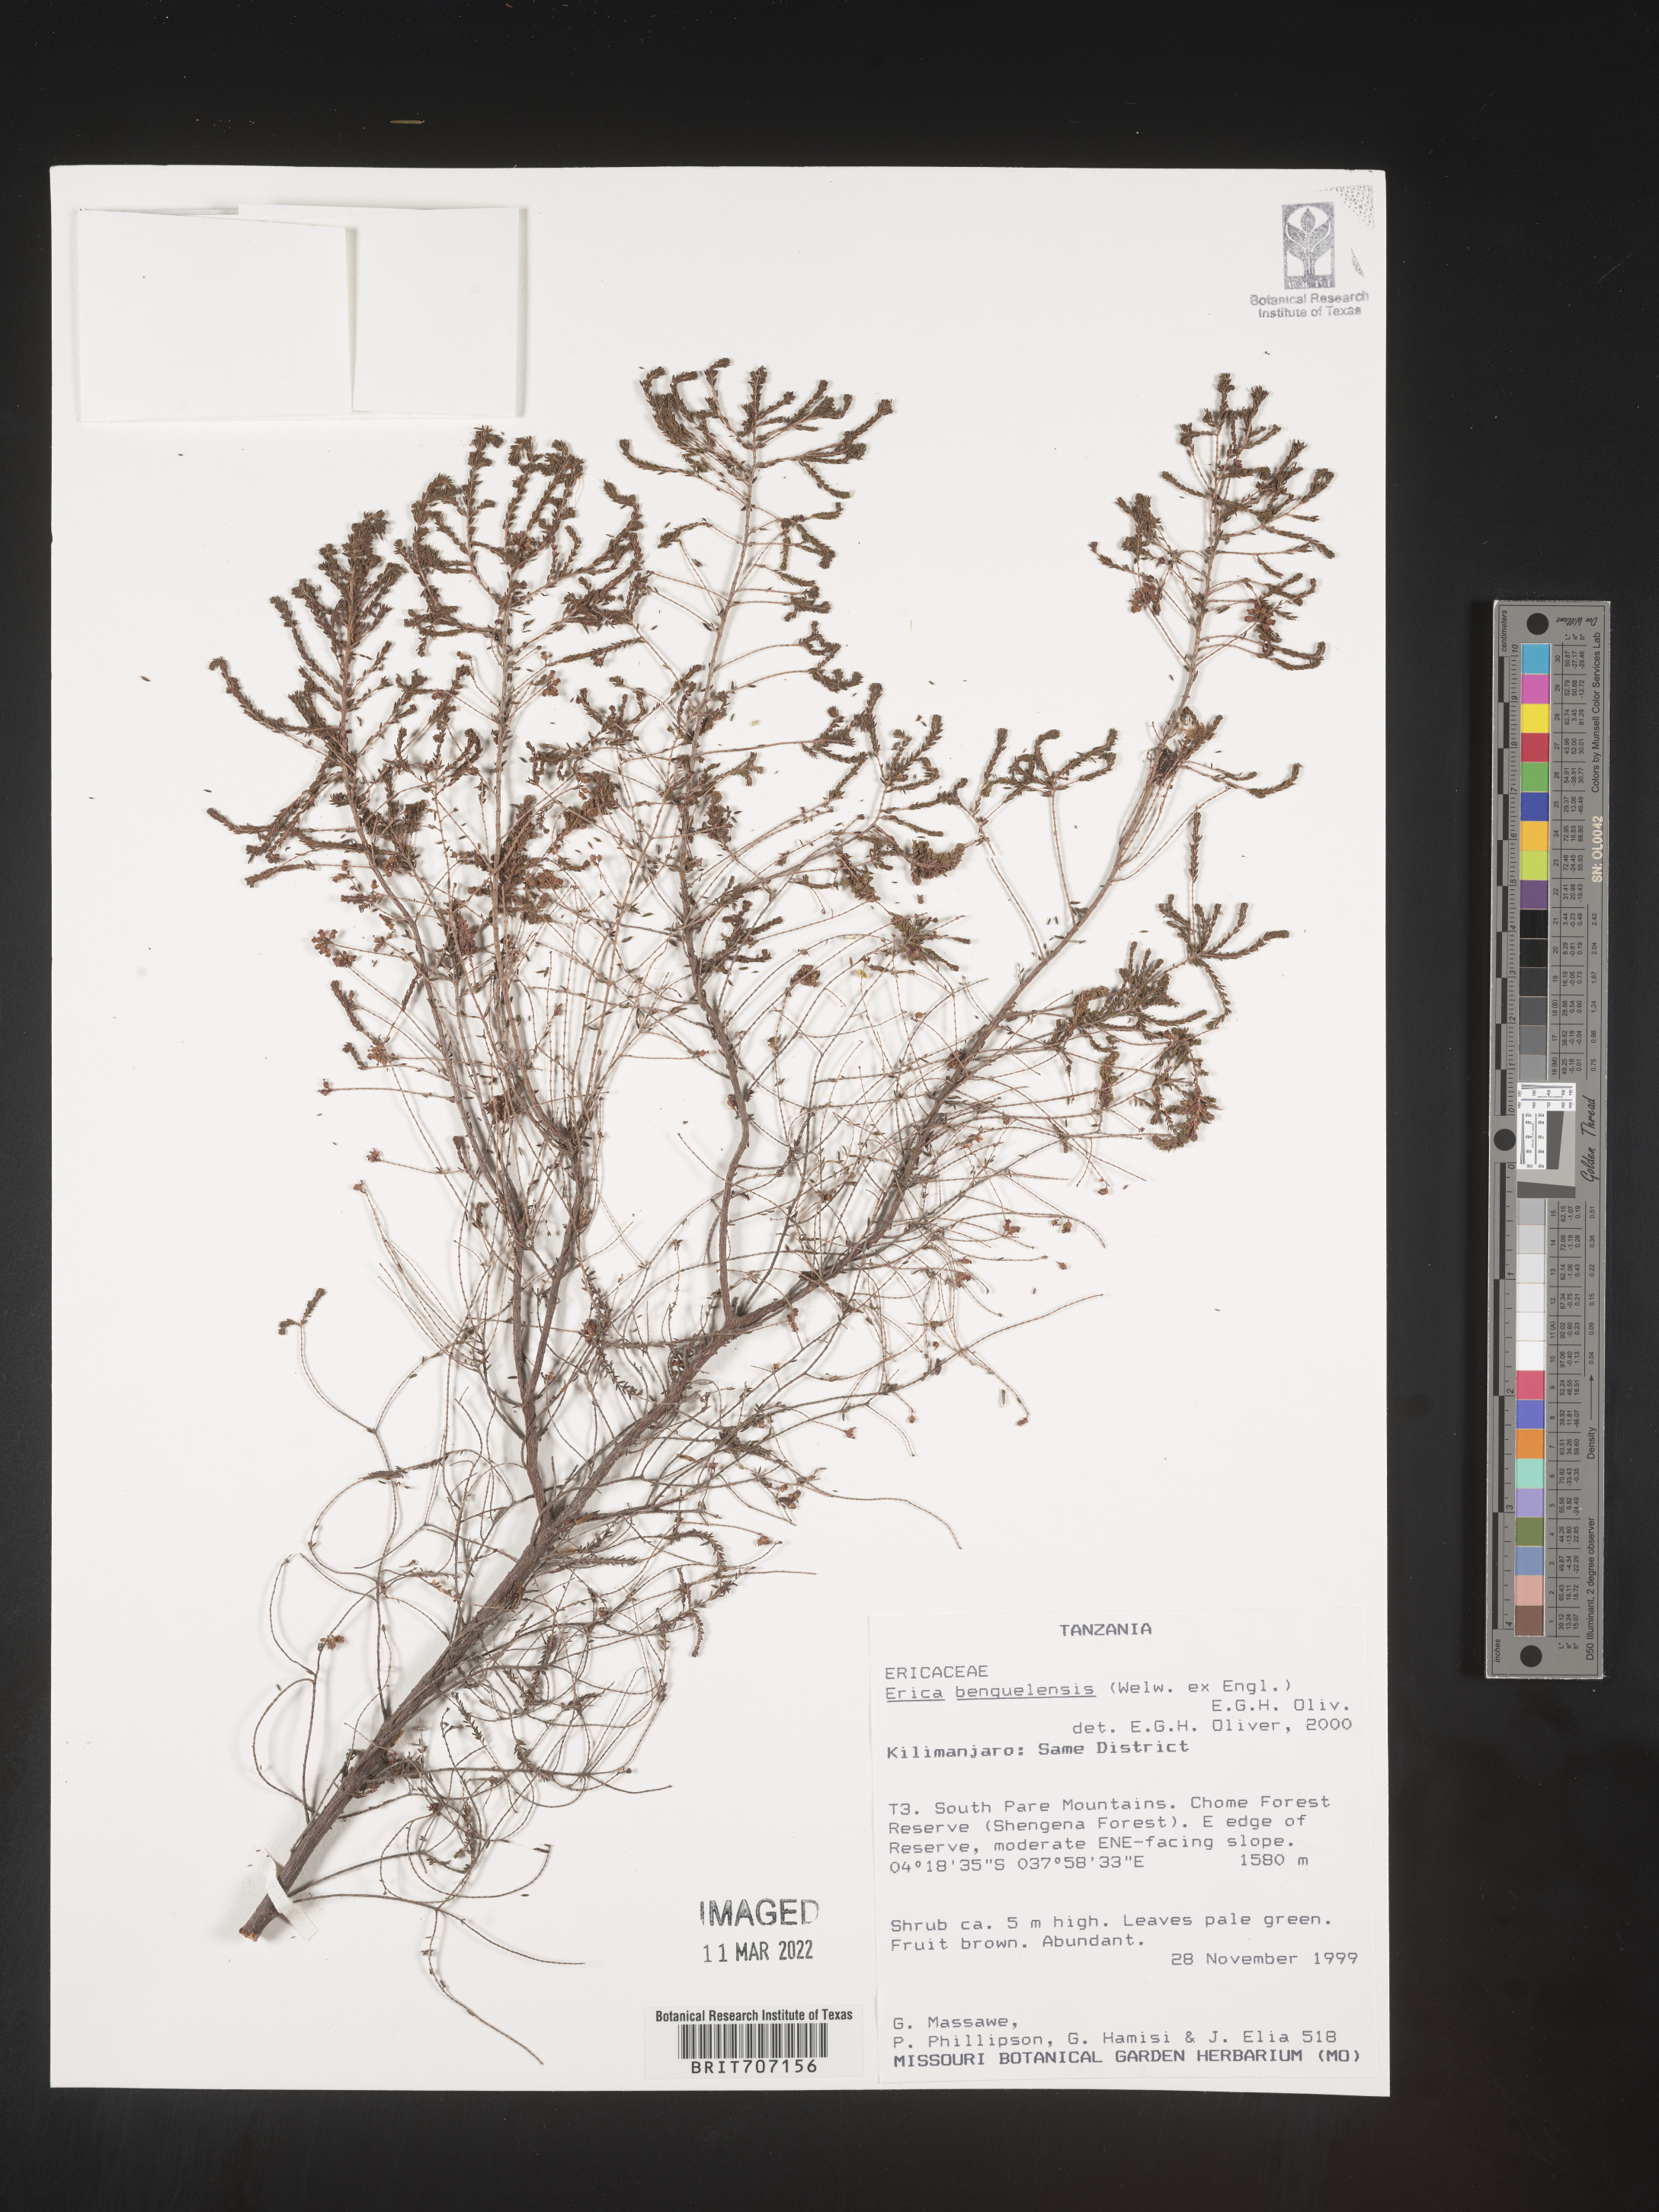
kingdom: Plantae
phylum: Tracheophyta
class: Magnoliopsida
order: Ericales
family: Ericaceae
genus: Erica
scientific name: Erica
